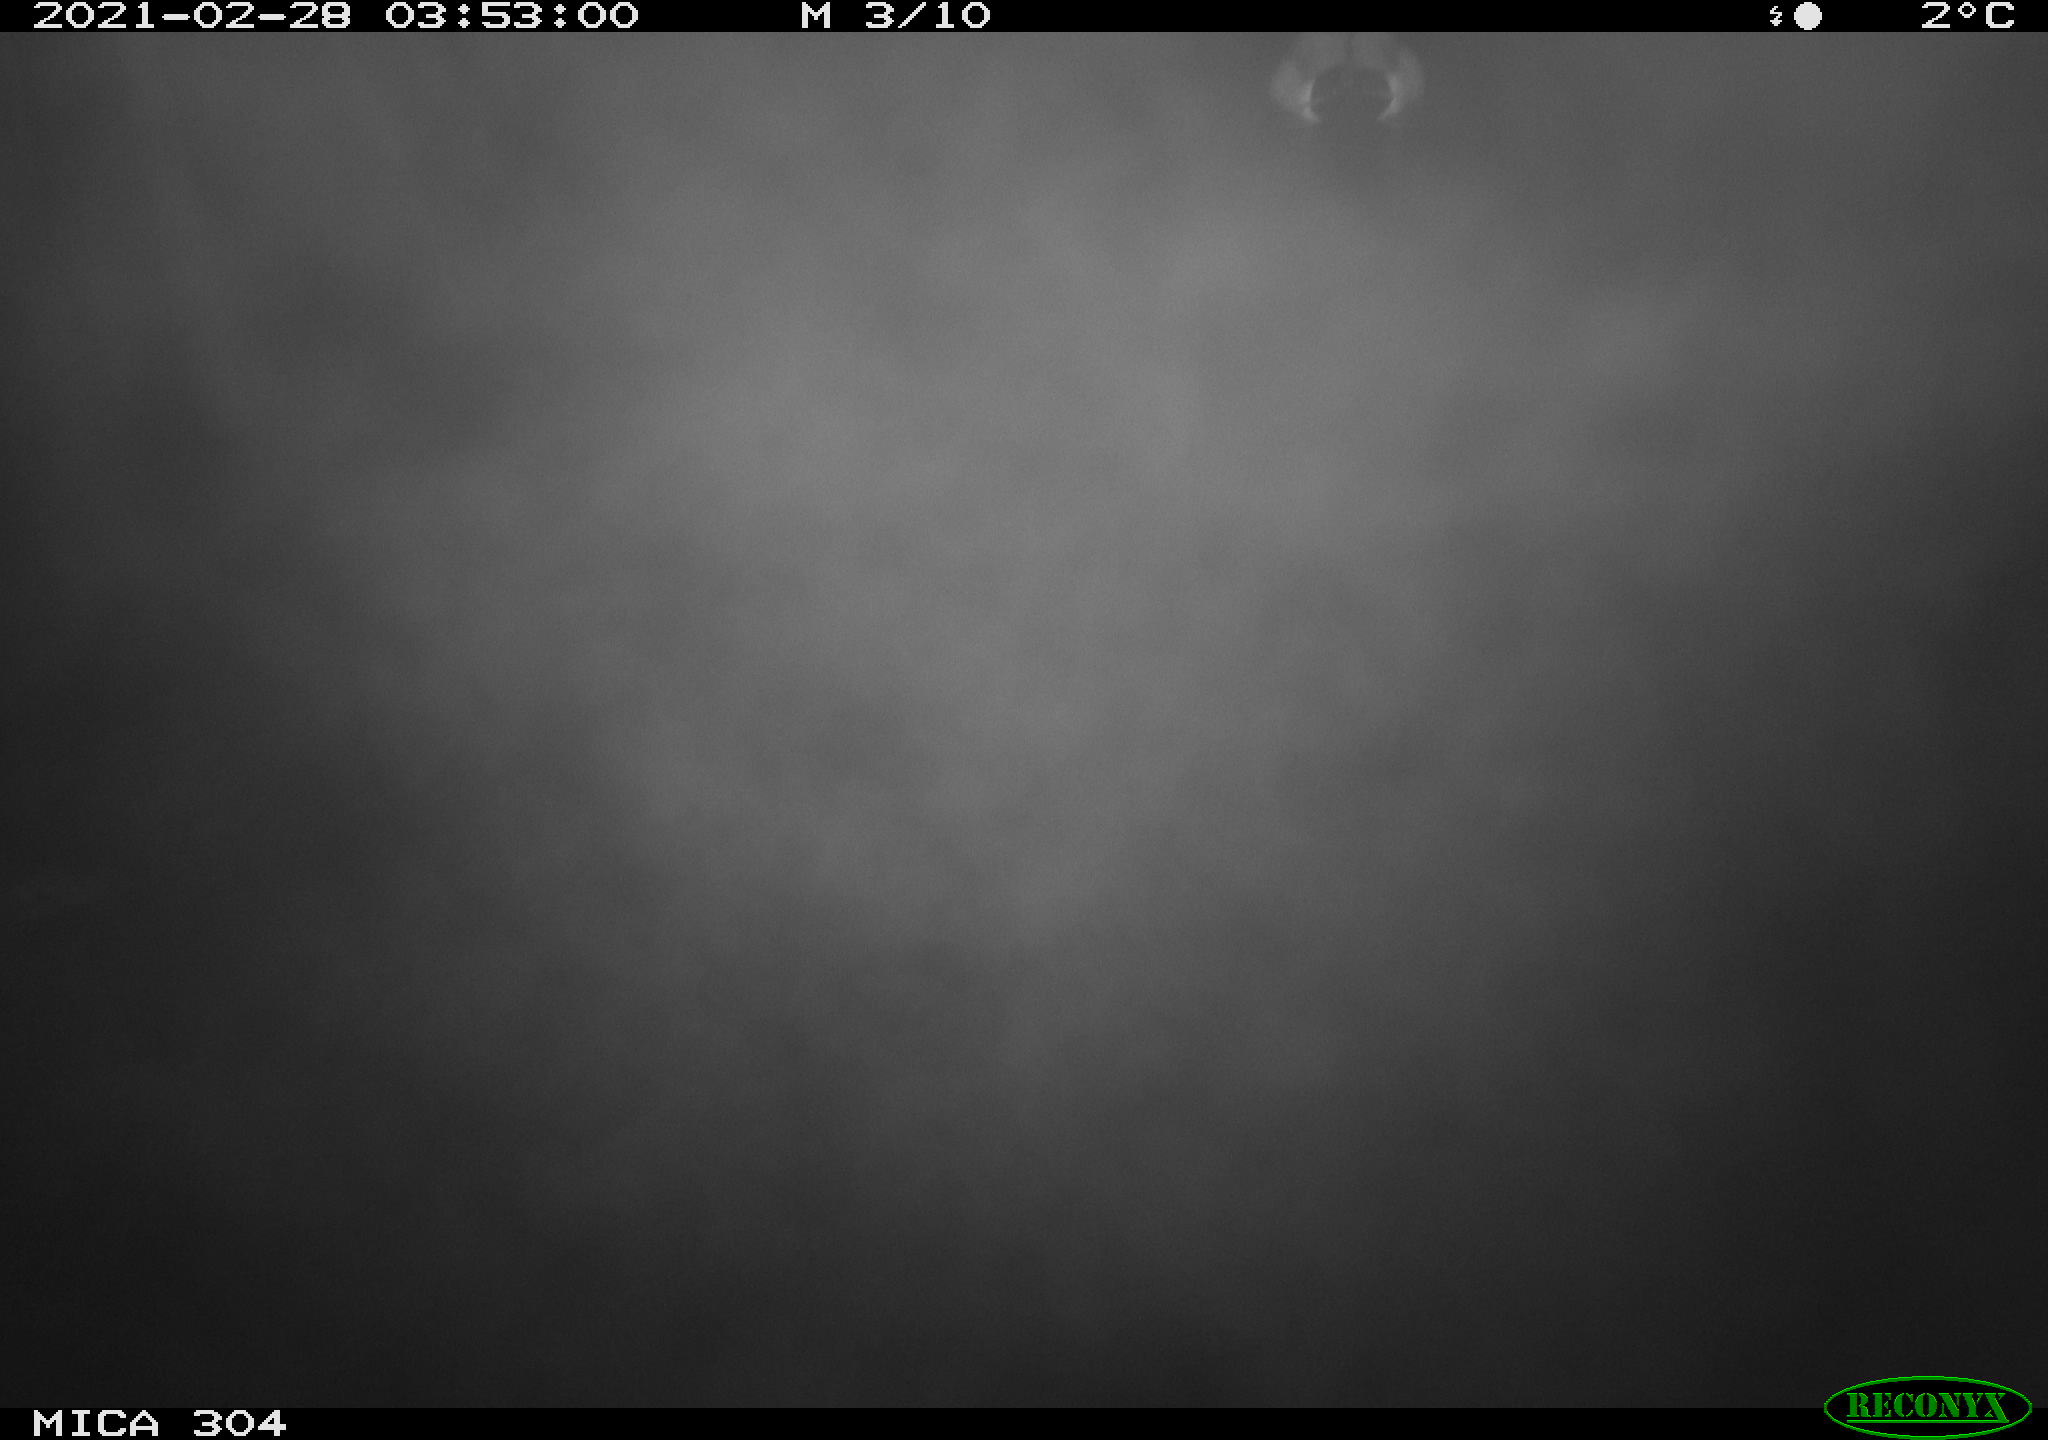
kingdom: Animalia
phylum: Chordata
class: Aves
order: Anseriformes
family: Anatidae
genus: Anas
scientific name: Anas platyrhynchos
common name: Mallard
